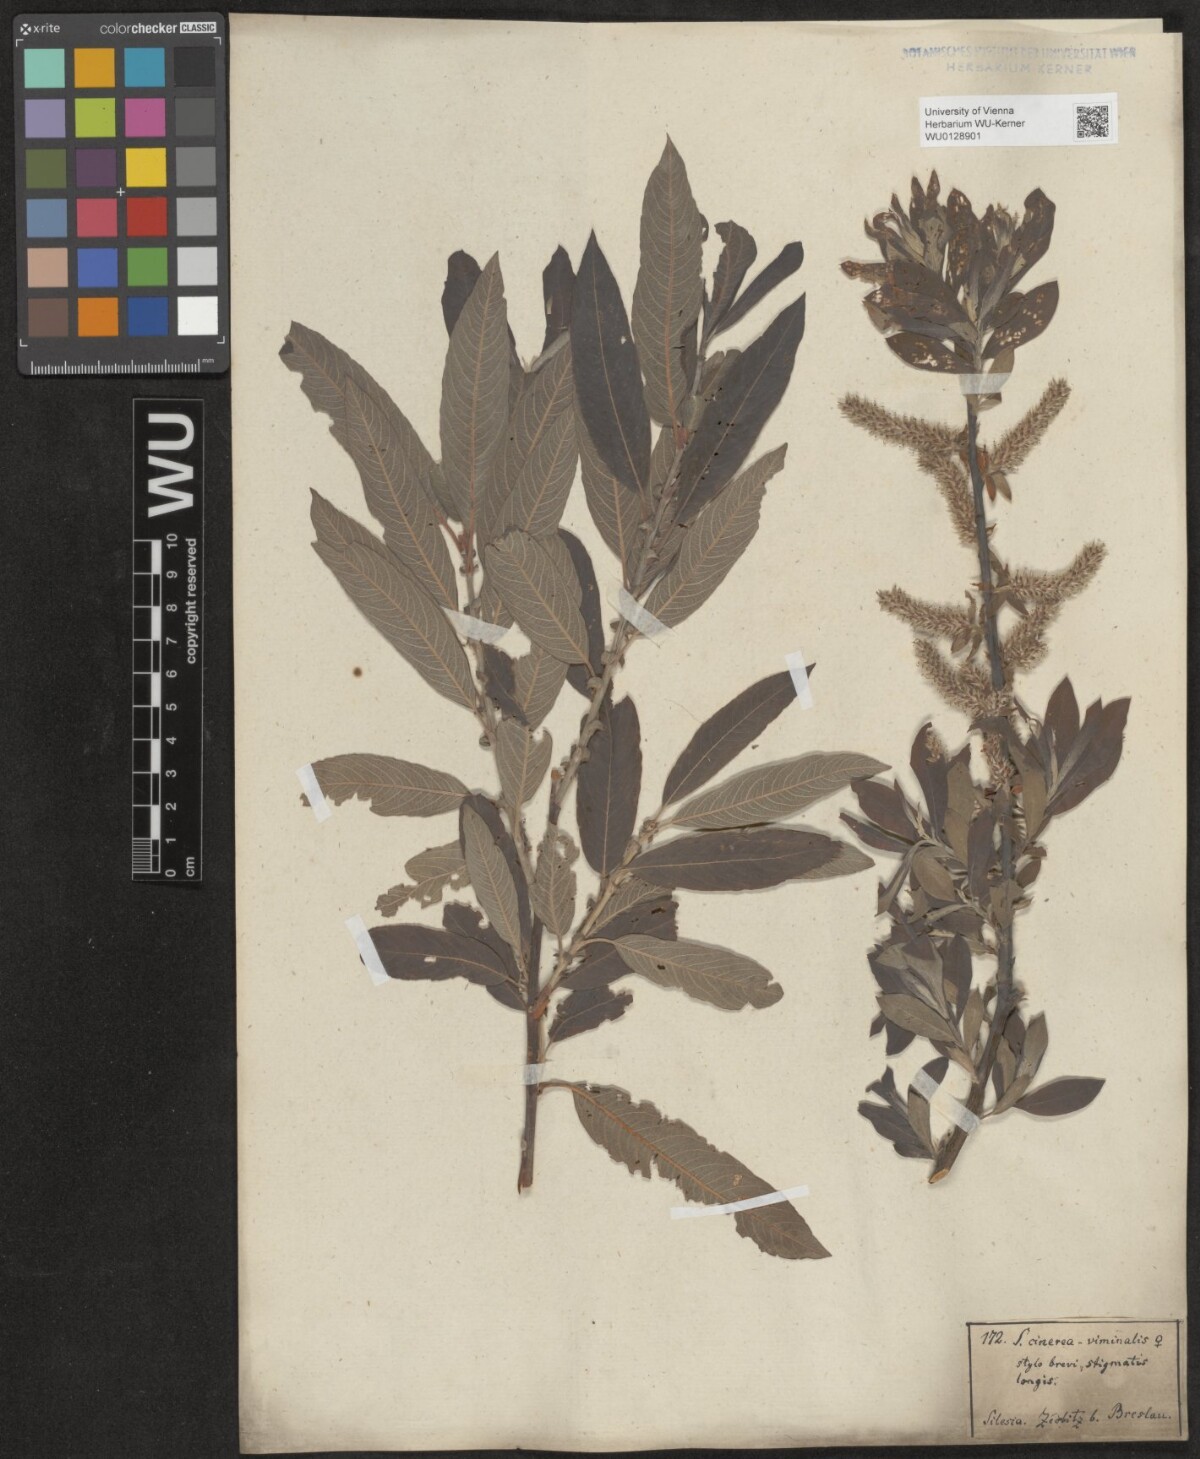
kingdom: Plantae
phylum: Tracheophyta
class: Magnoliopsida
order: Malpighiales
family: Salicaceae
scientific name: Salicaceae
